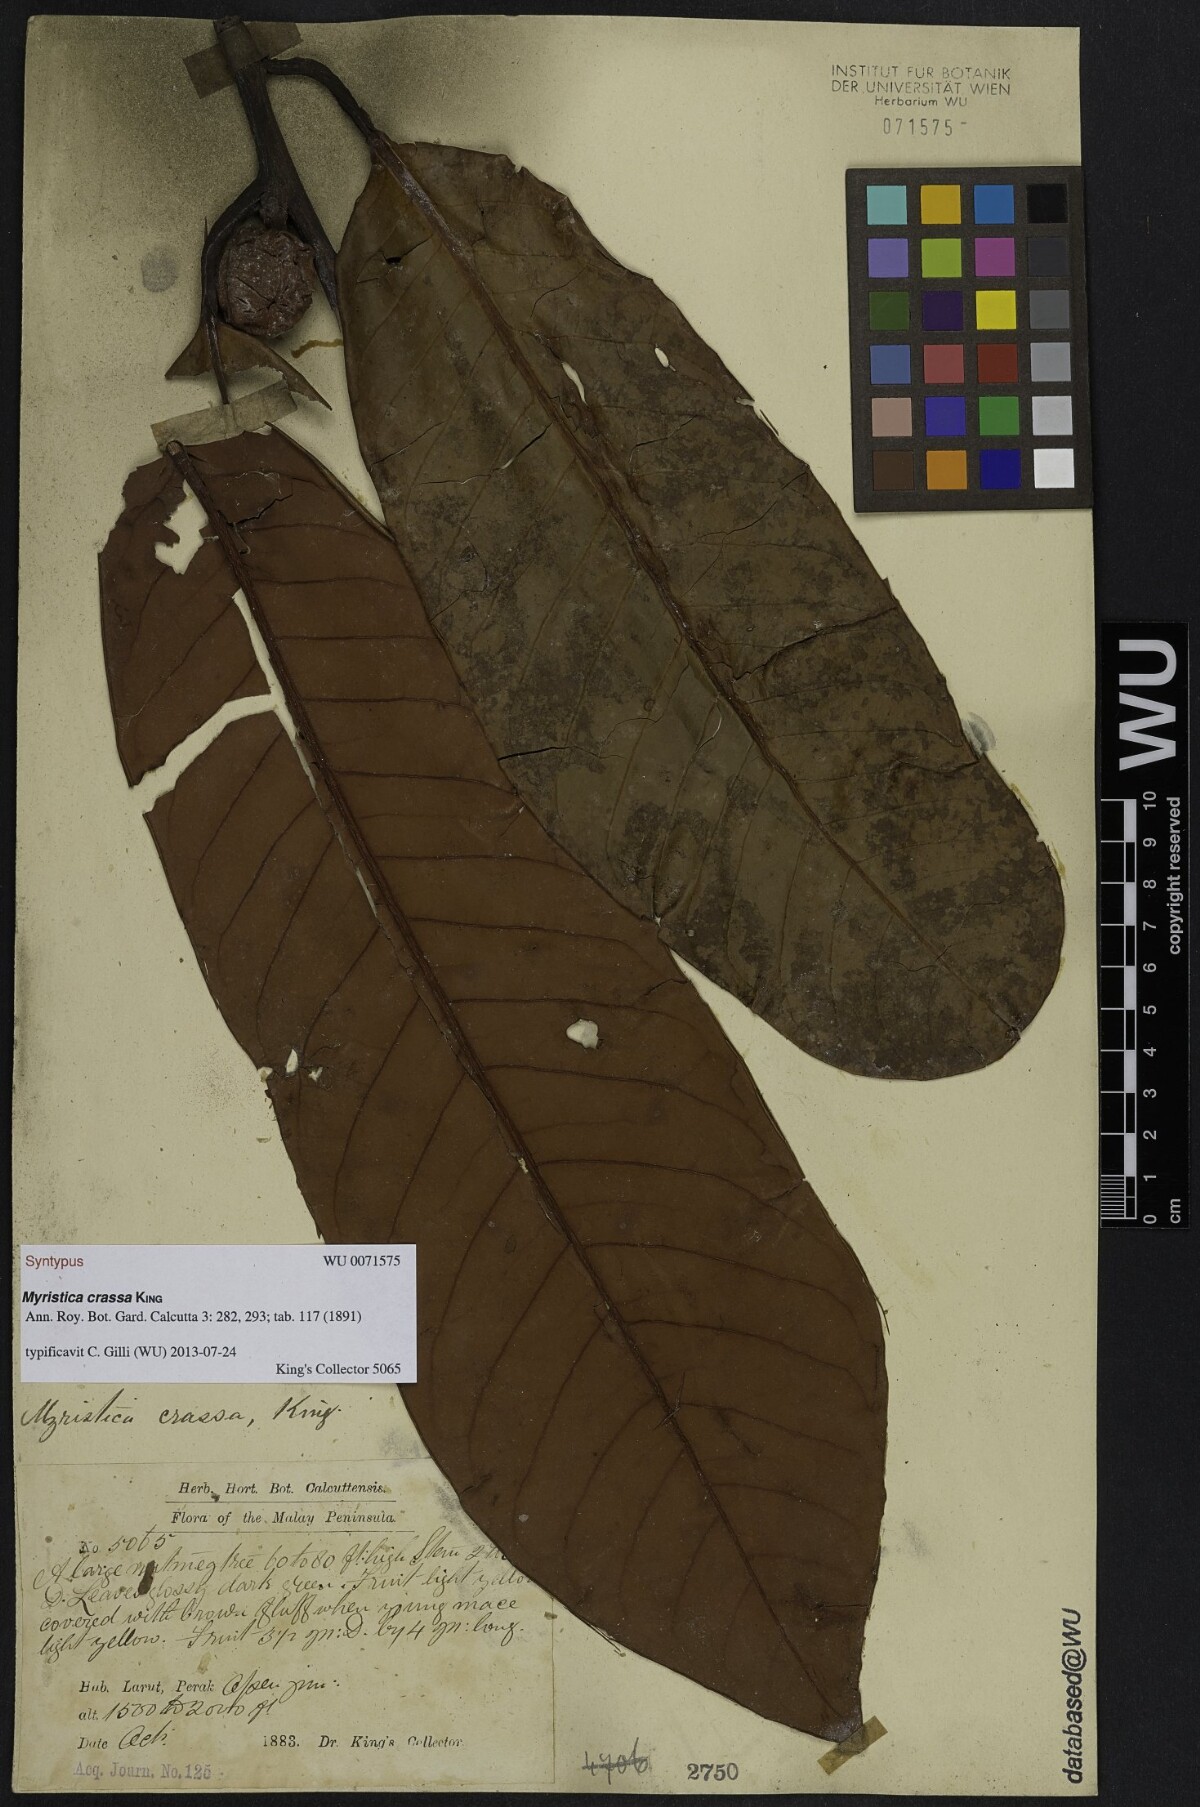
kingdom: Plantae
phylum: Tracheophyta
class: Magnoliopsida
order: Magnoliales
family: Myristicaceae
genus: Myristica
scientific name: Myristica crassa
